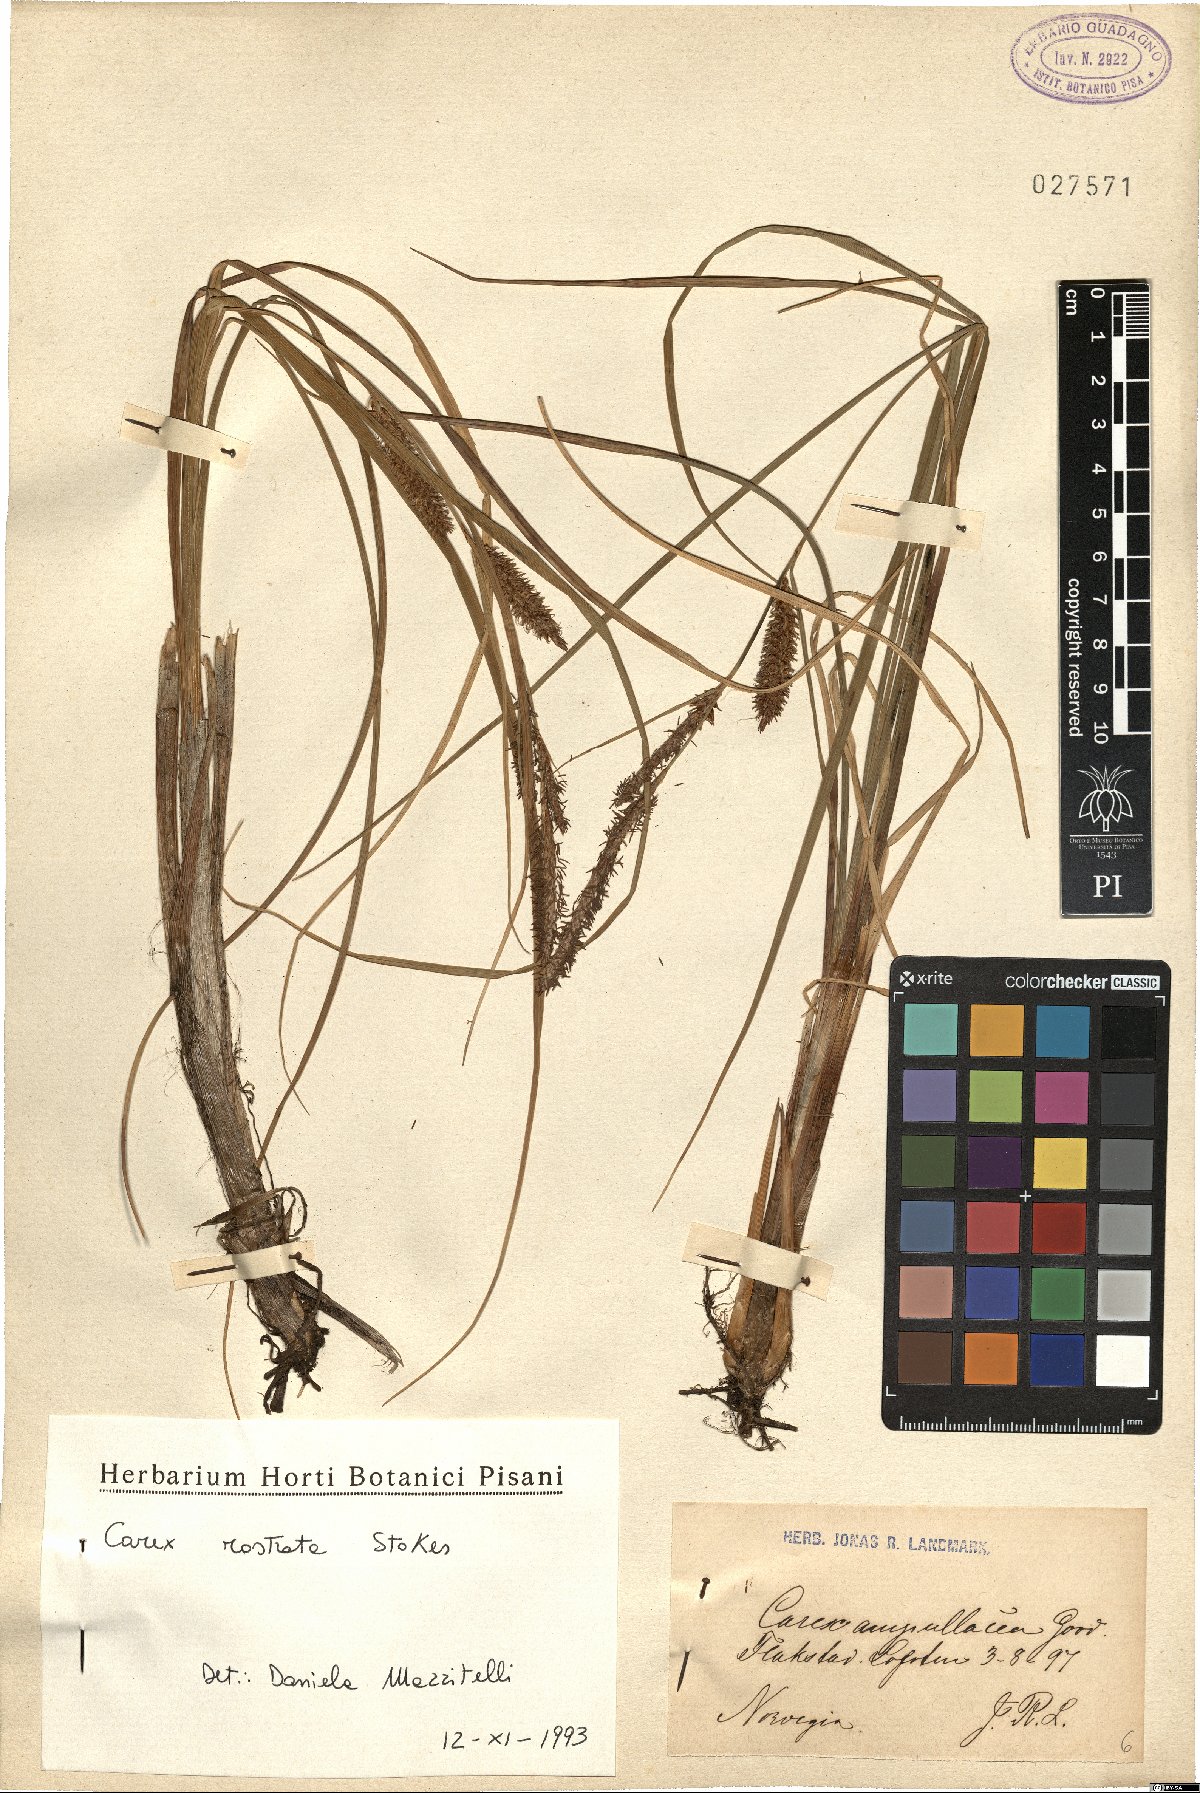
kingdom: Plantae
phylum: Tracheophyta
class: Liliopsida
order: Poales
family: Cyperaceae
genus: Carex
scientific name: Carex rostrata
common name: Bottle sedge
